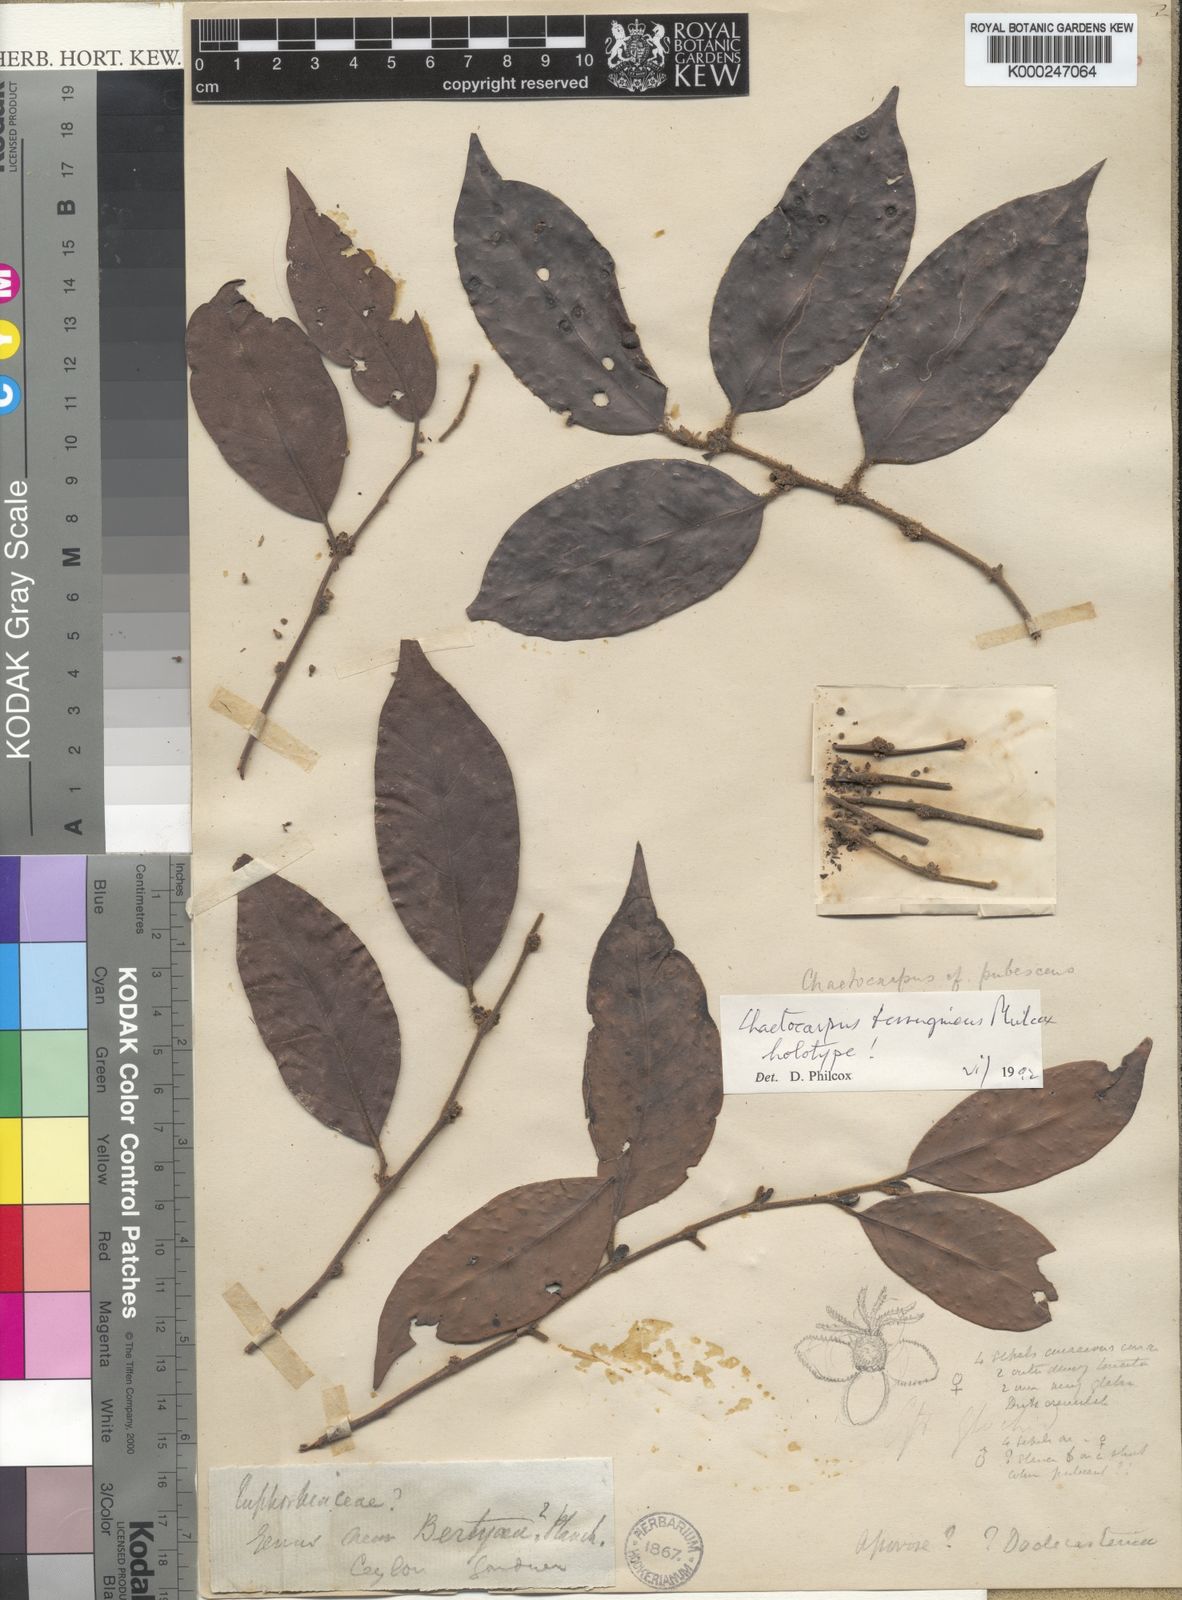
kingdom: Plantae
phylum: Tracheophyta
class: Magnoliopsida
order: Malpighiales
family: Peraceae
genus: Chaetocarpus
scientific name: Chaetocarpus ferrugineus
